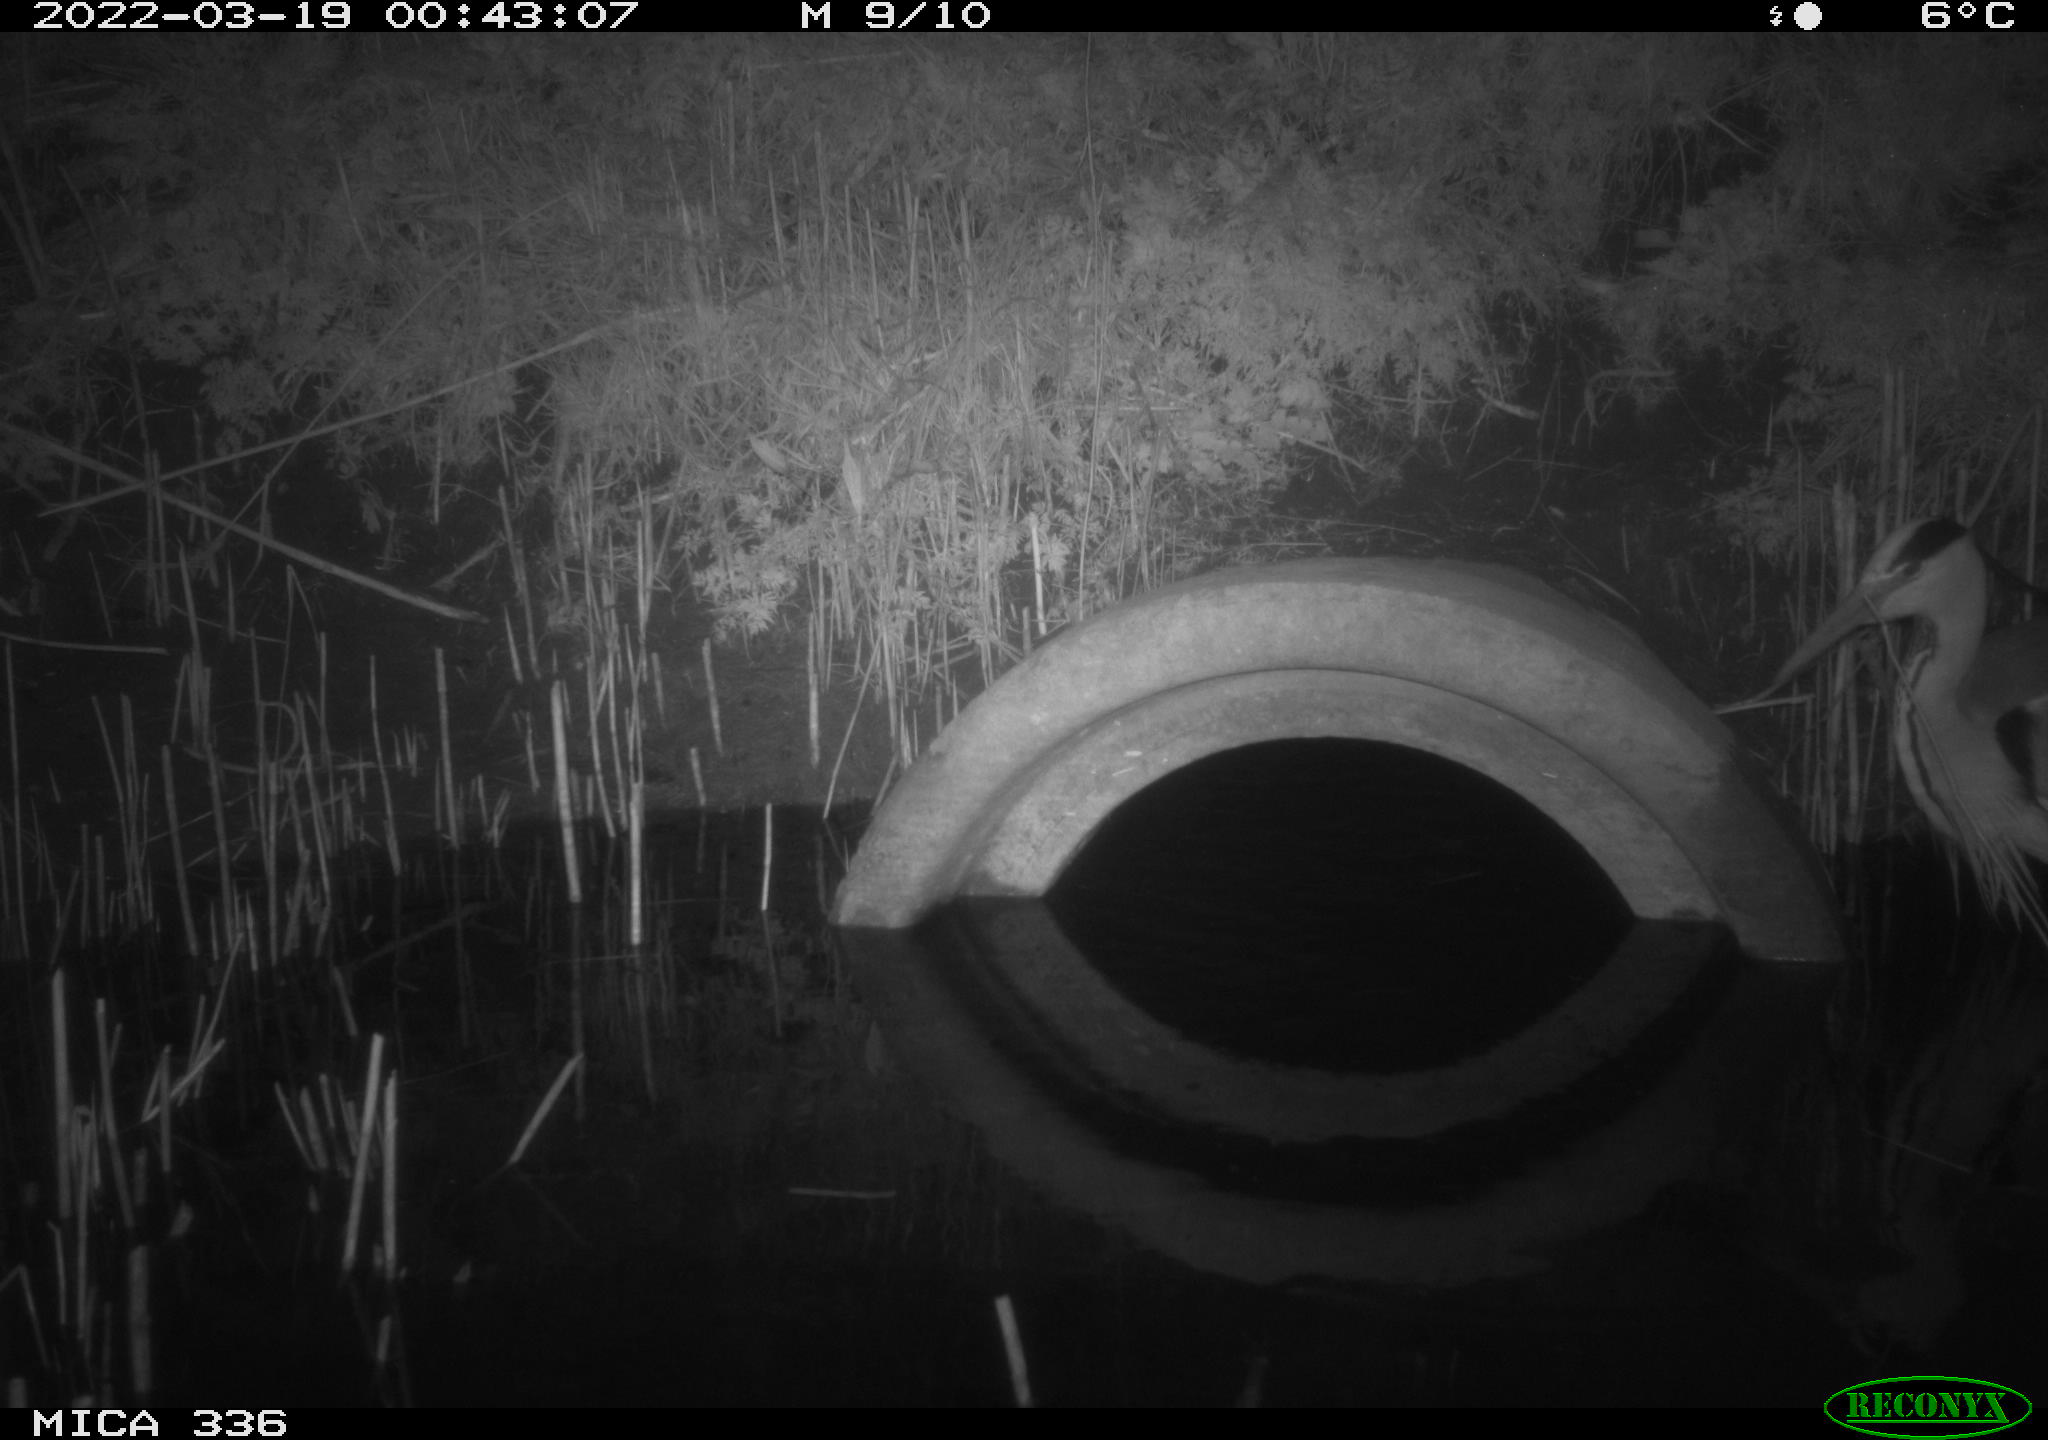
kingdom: Animalia
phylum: Chordata
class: Aves
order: Pelecaniformes
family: Ardeidae
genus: Ardea
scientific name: Ardea cinerea
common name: Grey heron
